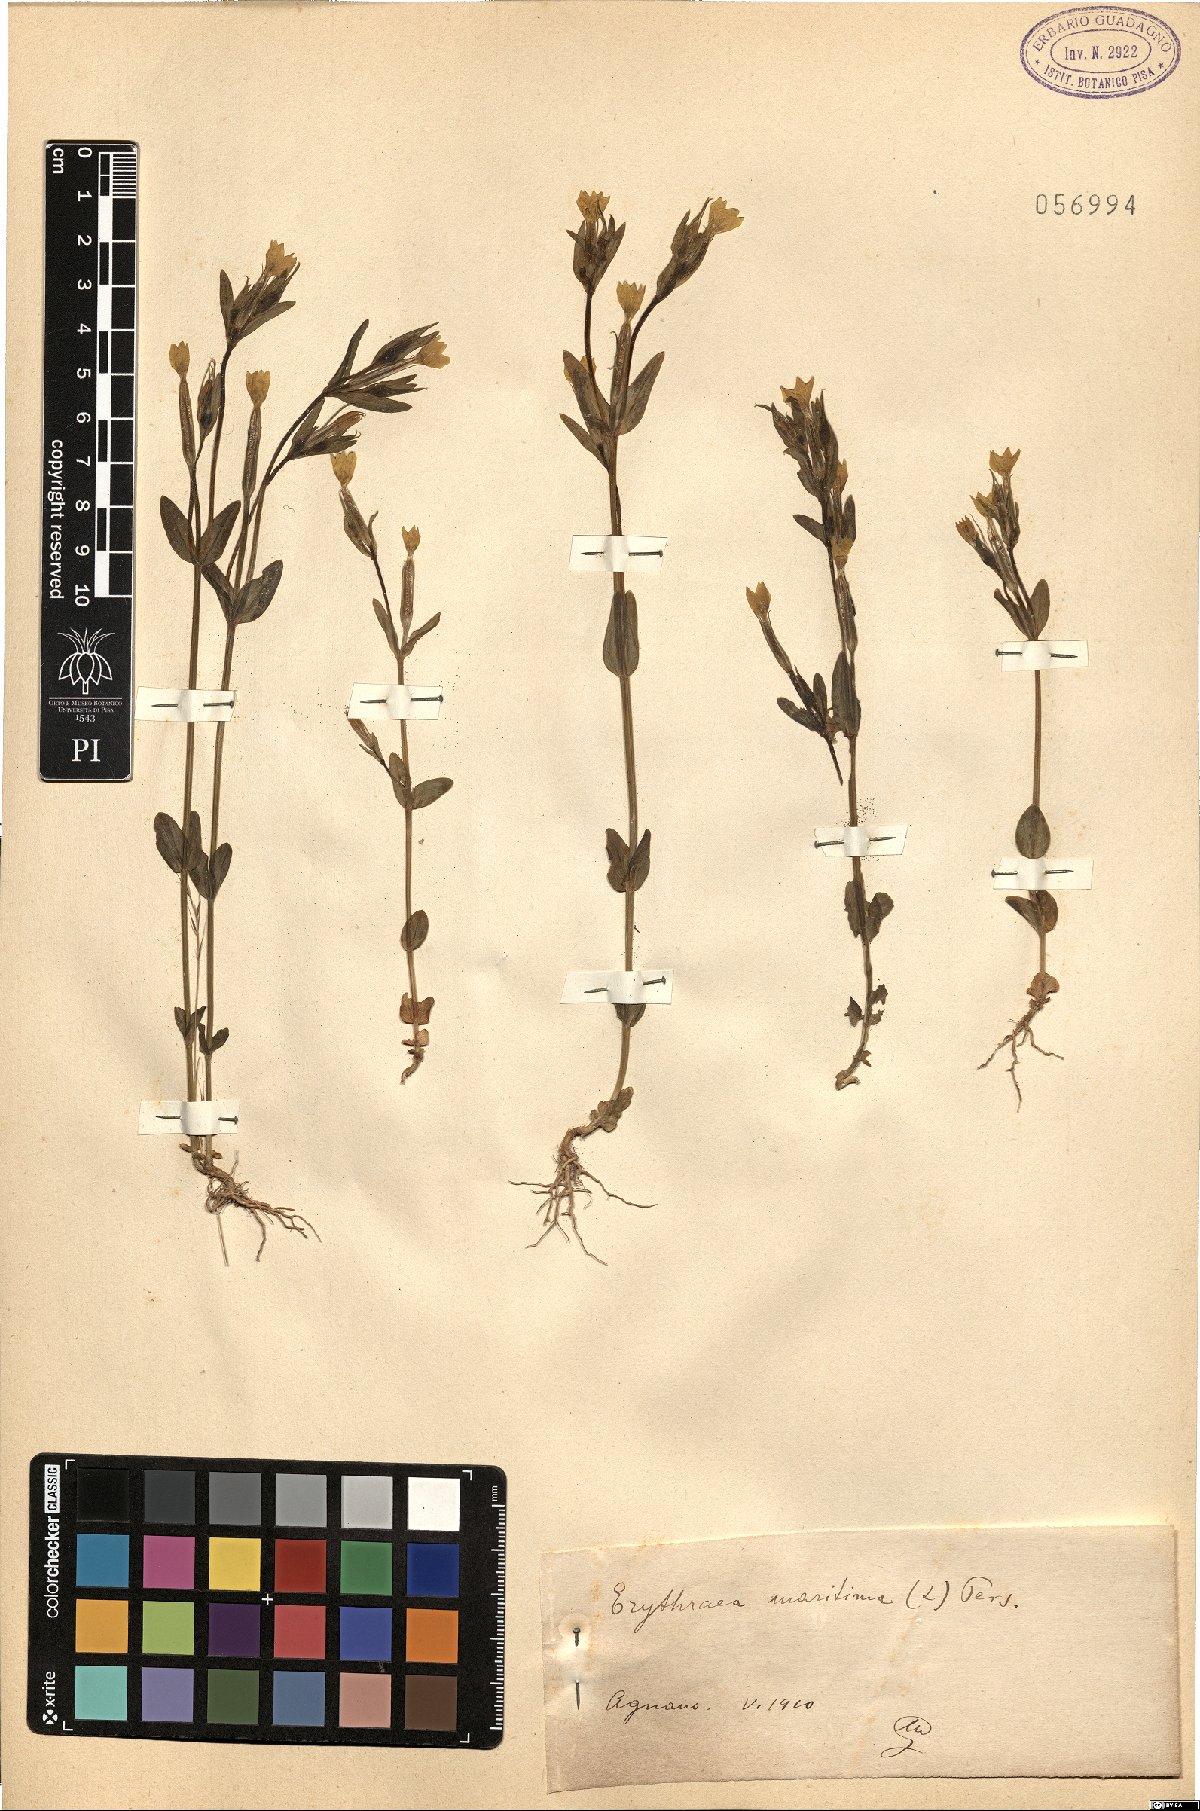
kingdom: Plantae
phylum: Tracheophyta
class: Magnoliopsida
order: Gentianales
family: Gentianaceae
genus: Centaurium
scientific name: Centaurium maritimum
